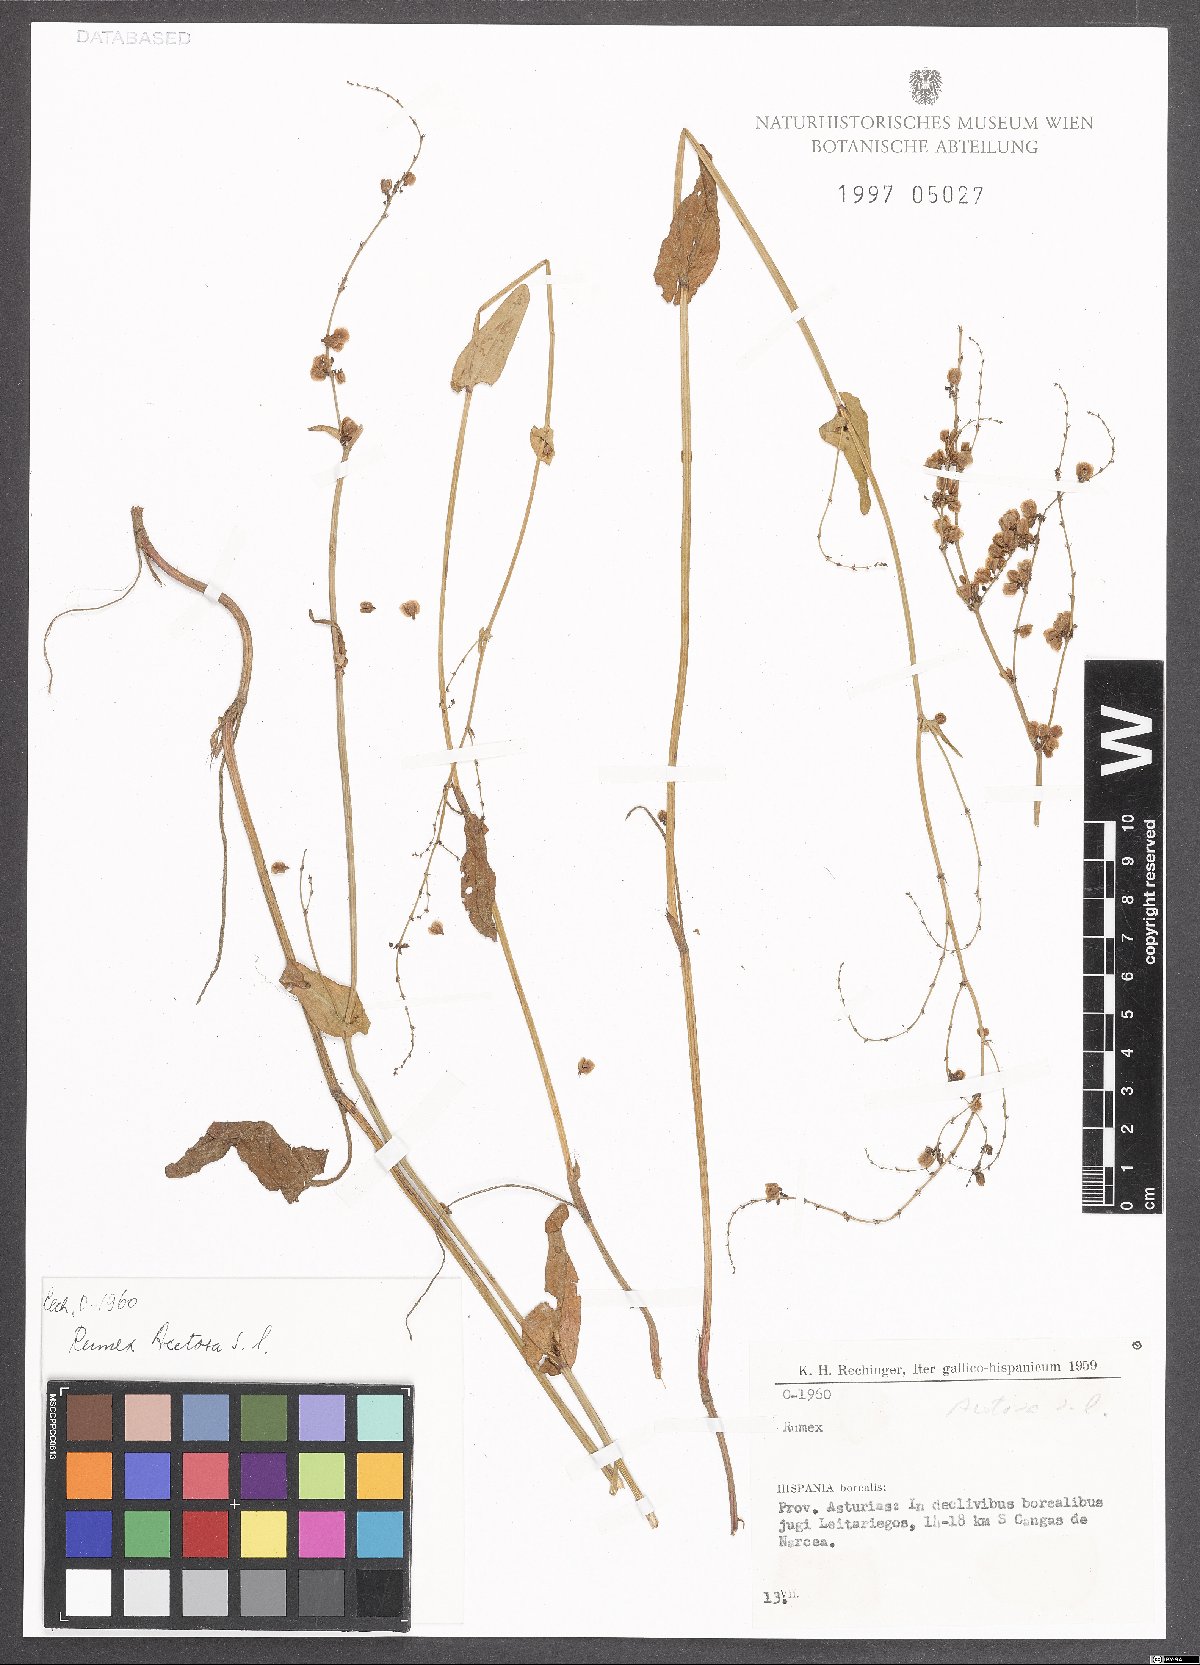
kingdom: Plantae
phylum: Tracheophyta
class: Magnoliopsida
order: Caryophyllales
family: Polygonaceae
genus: Rumex
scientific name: Rumex acetosa
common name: Garden sorrel
